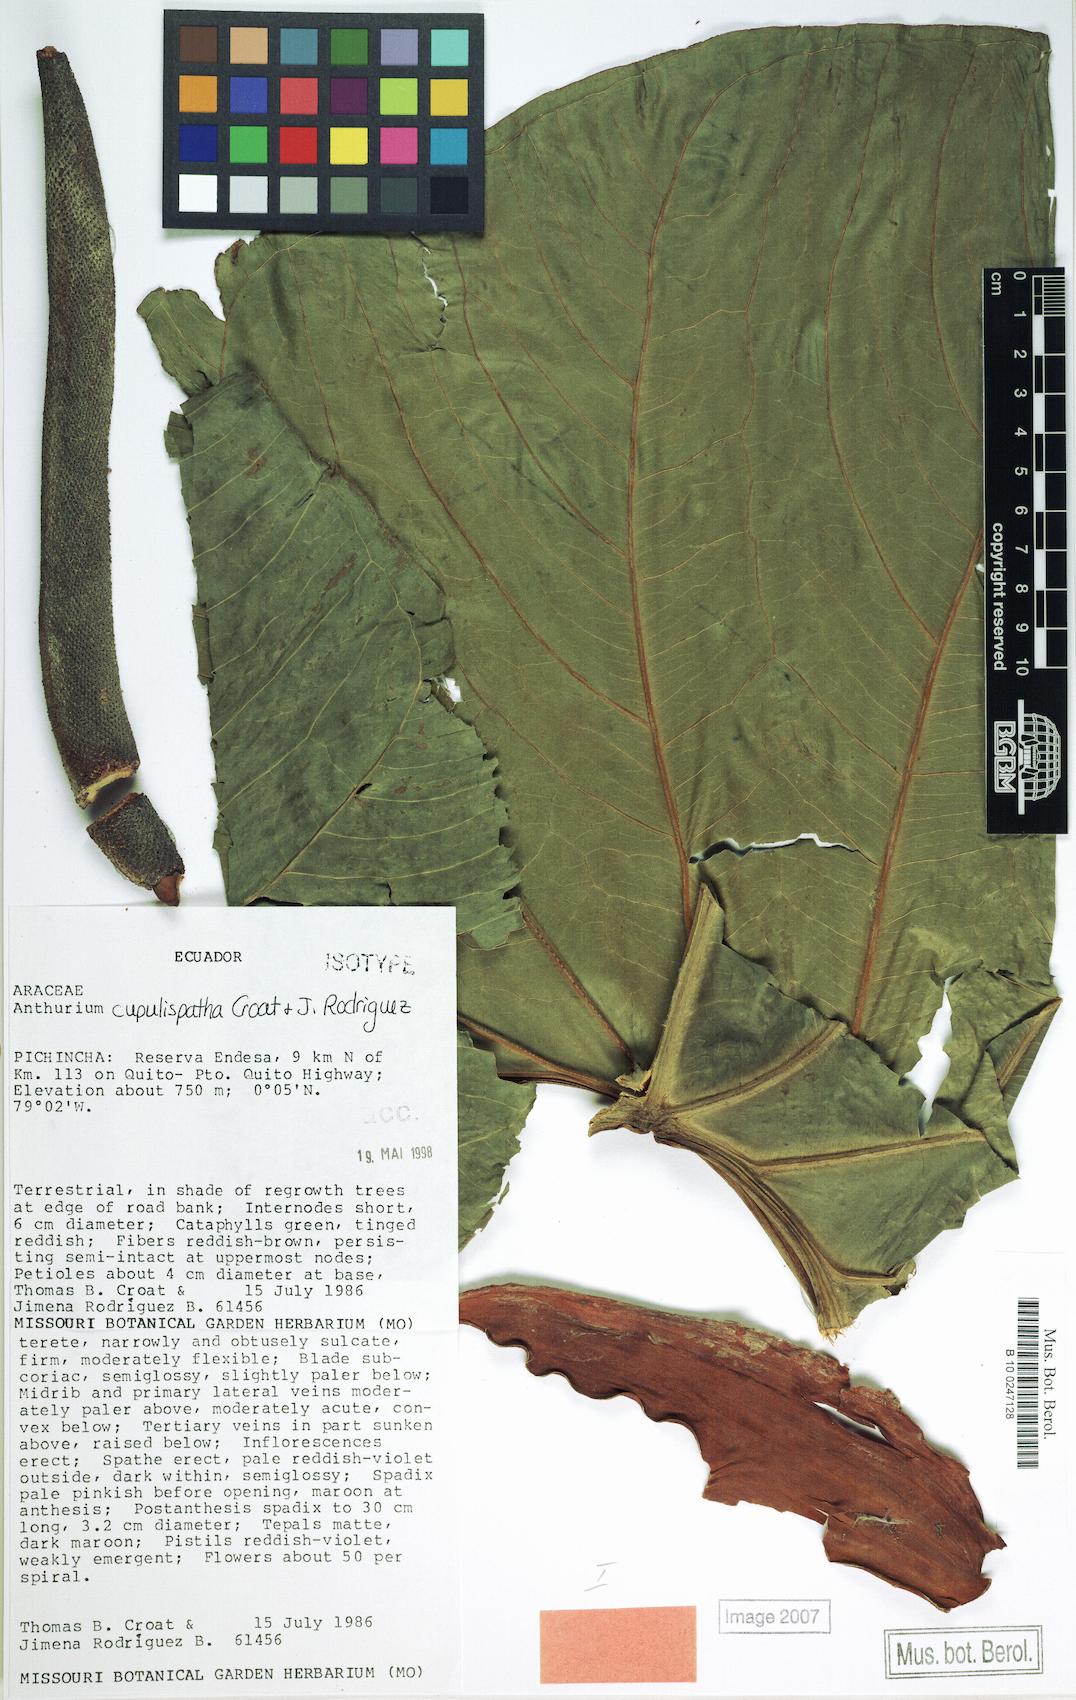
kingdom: Plantae
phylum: Tracheophyta
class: Liliopsida
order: Alismatales
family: Araceae
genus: Anthurium
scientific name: Anthurium cupulispathum
